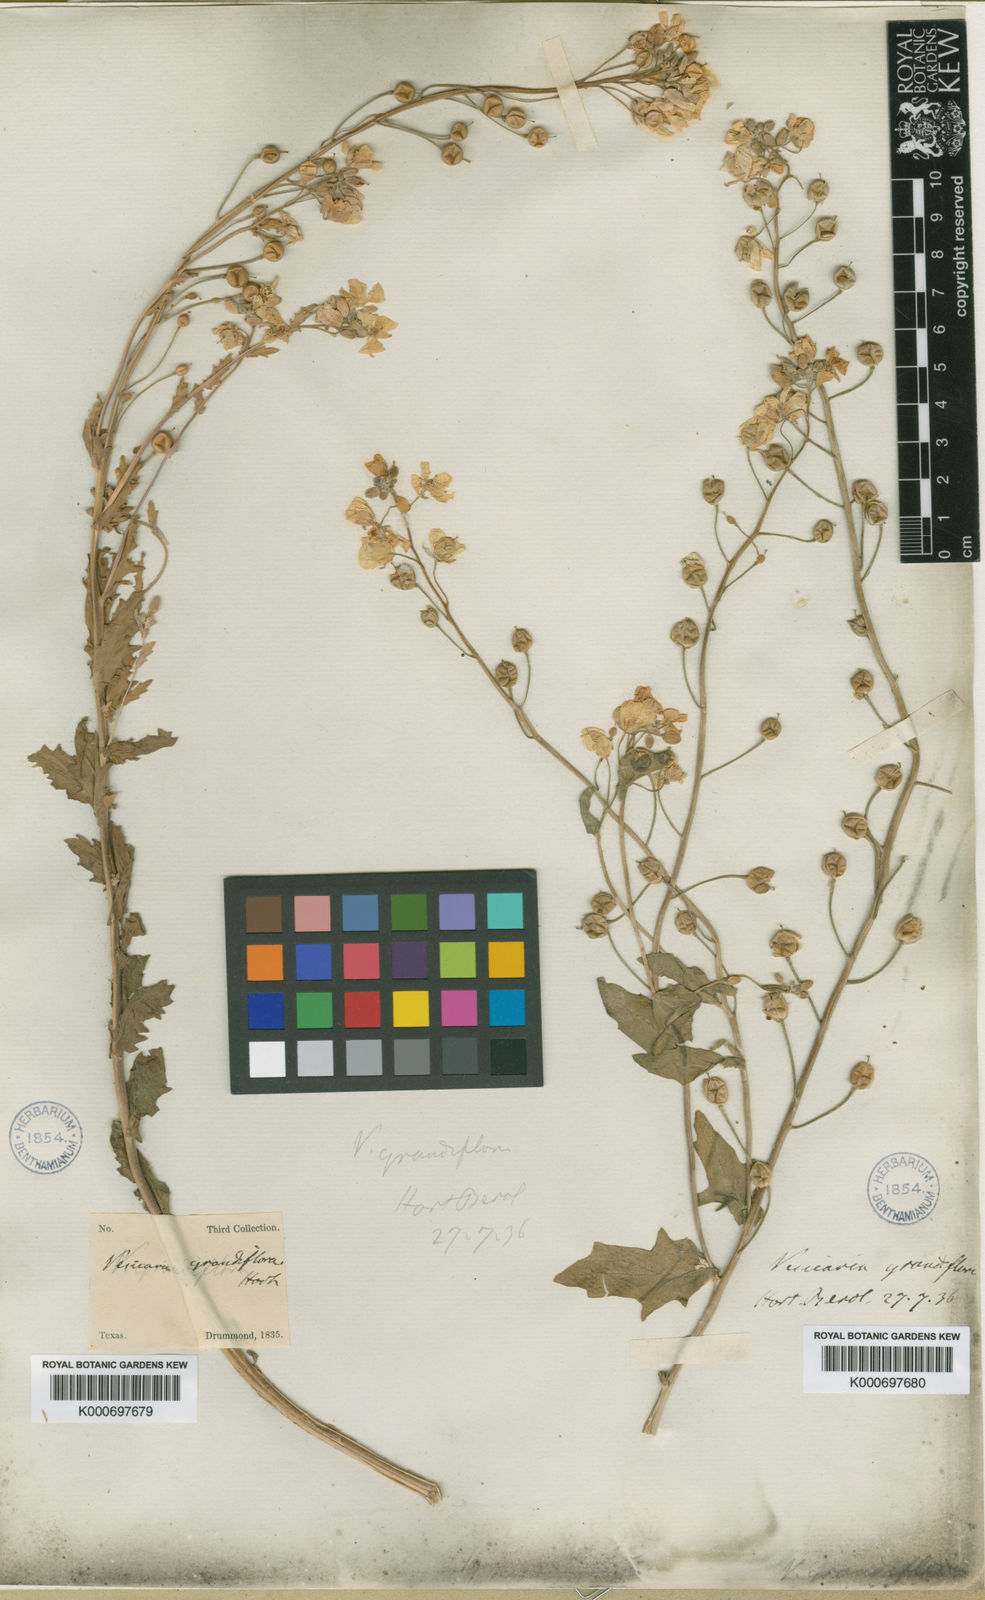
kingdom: Plantae
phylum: Tracheophyta
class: Magnoliopsida
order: Brassicales
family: Brassicaceae
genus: Paysonia
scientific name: Paysonia grandiflora
